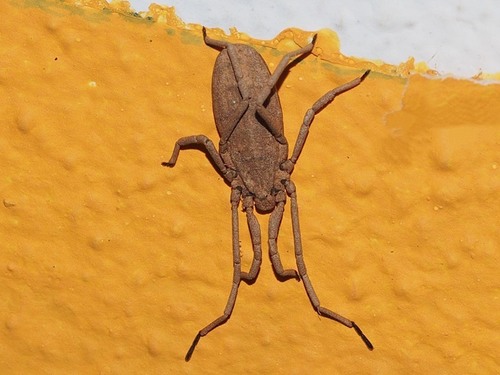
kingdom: Animalia
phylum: Arthropoda
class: Arachnida
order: Opiliones
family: Trogulidae
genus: Trogulus
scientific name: Trogulus huberi
